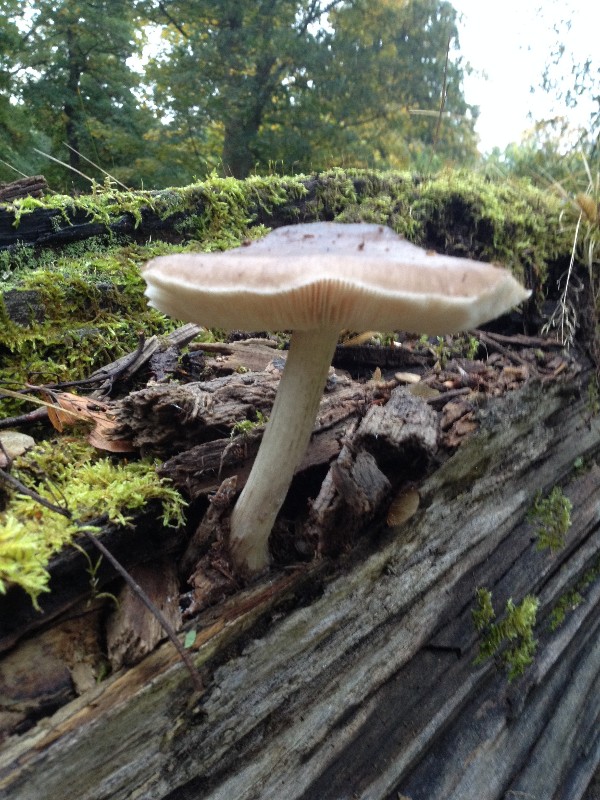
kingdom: Fungi
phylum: Basidiomycota
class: Agaricomycetes
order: Agaricales
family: Pluteaceae
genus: Pluteus
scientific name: Pluteus cervinus
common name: sodfarvet skærmhat
